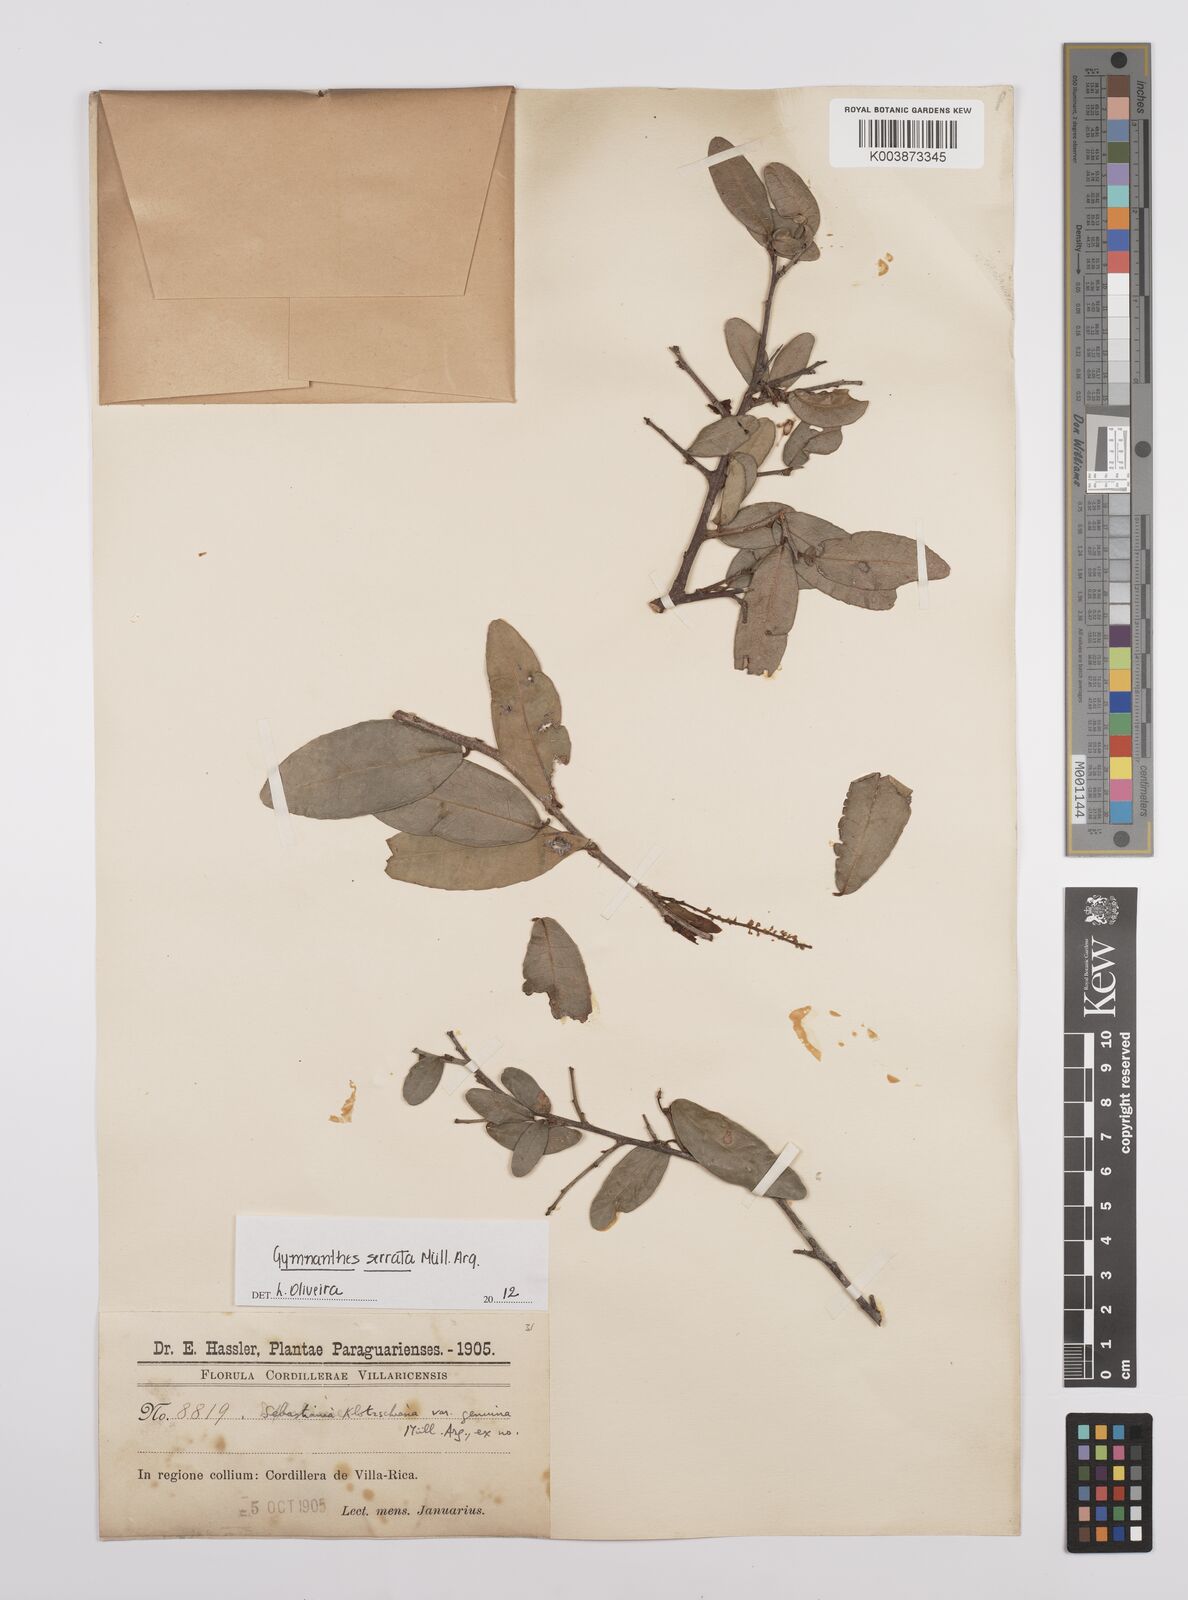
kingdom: Plantae
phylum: Tracheophyta
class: Magnoliopsida
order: Malpighiales
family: Euphorbiaceae
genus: Sebastiania
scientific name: Sebastiania serrata
